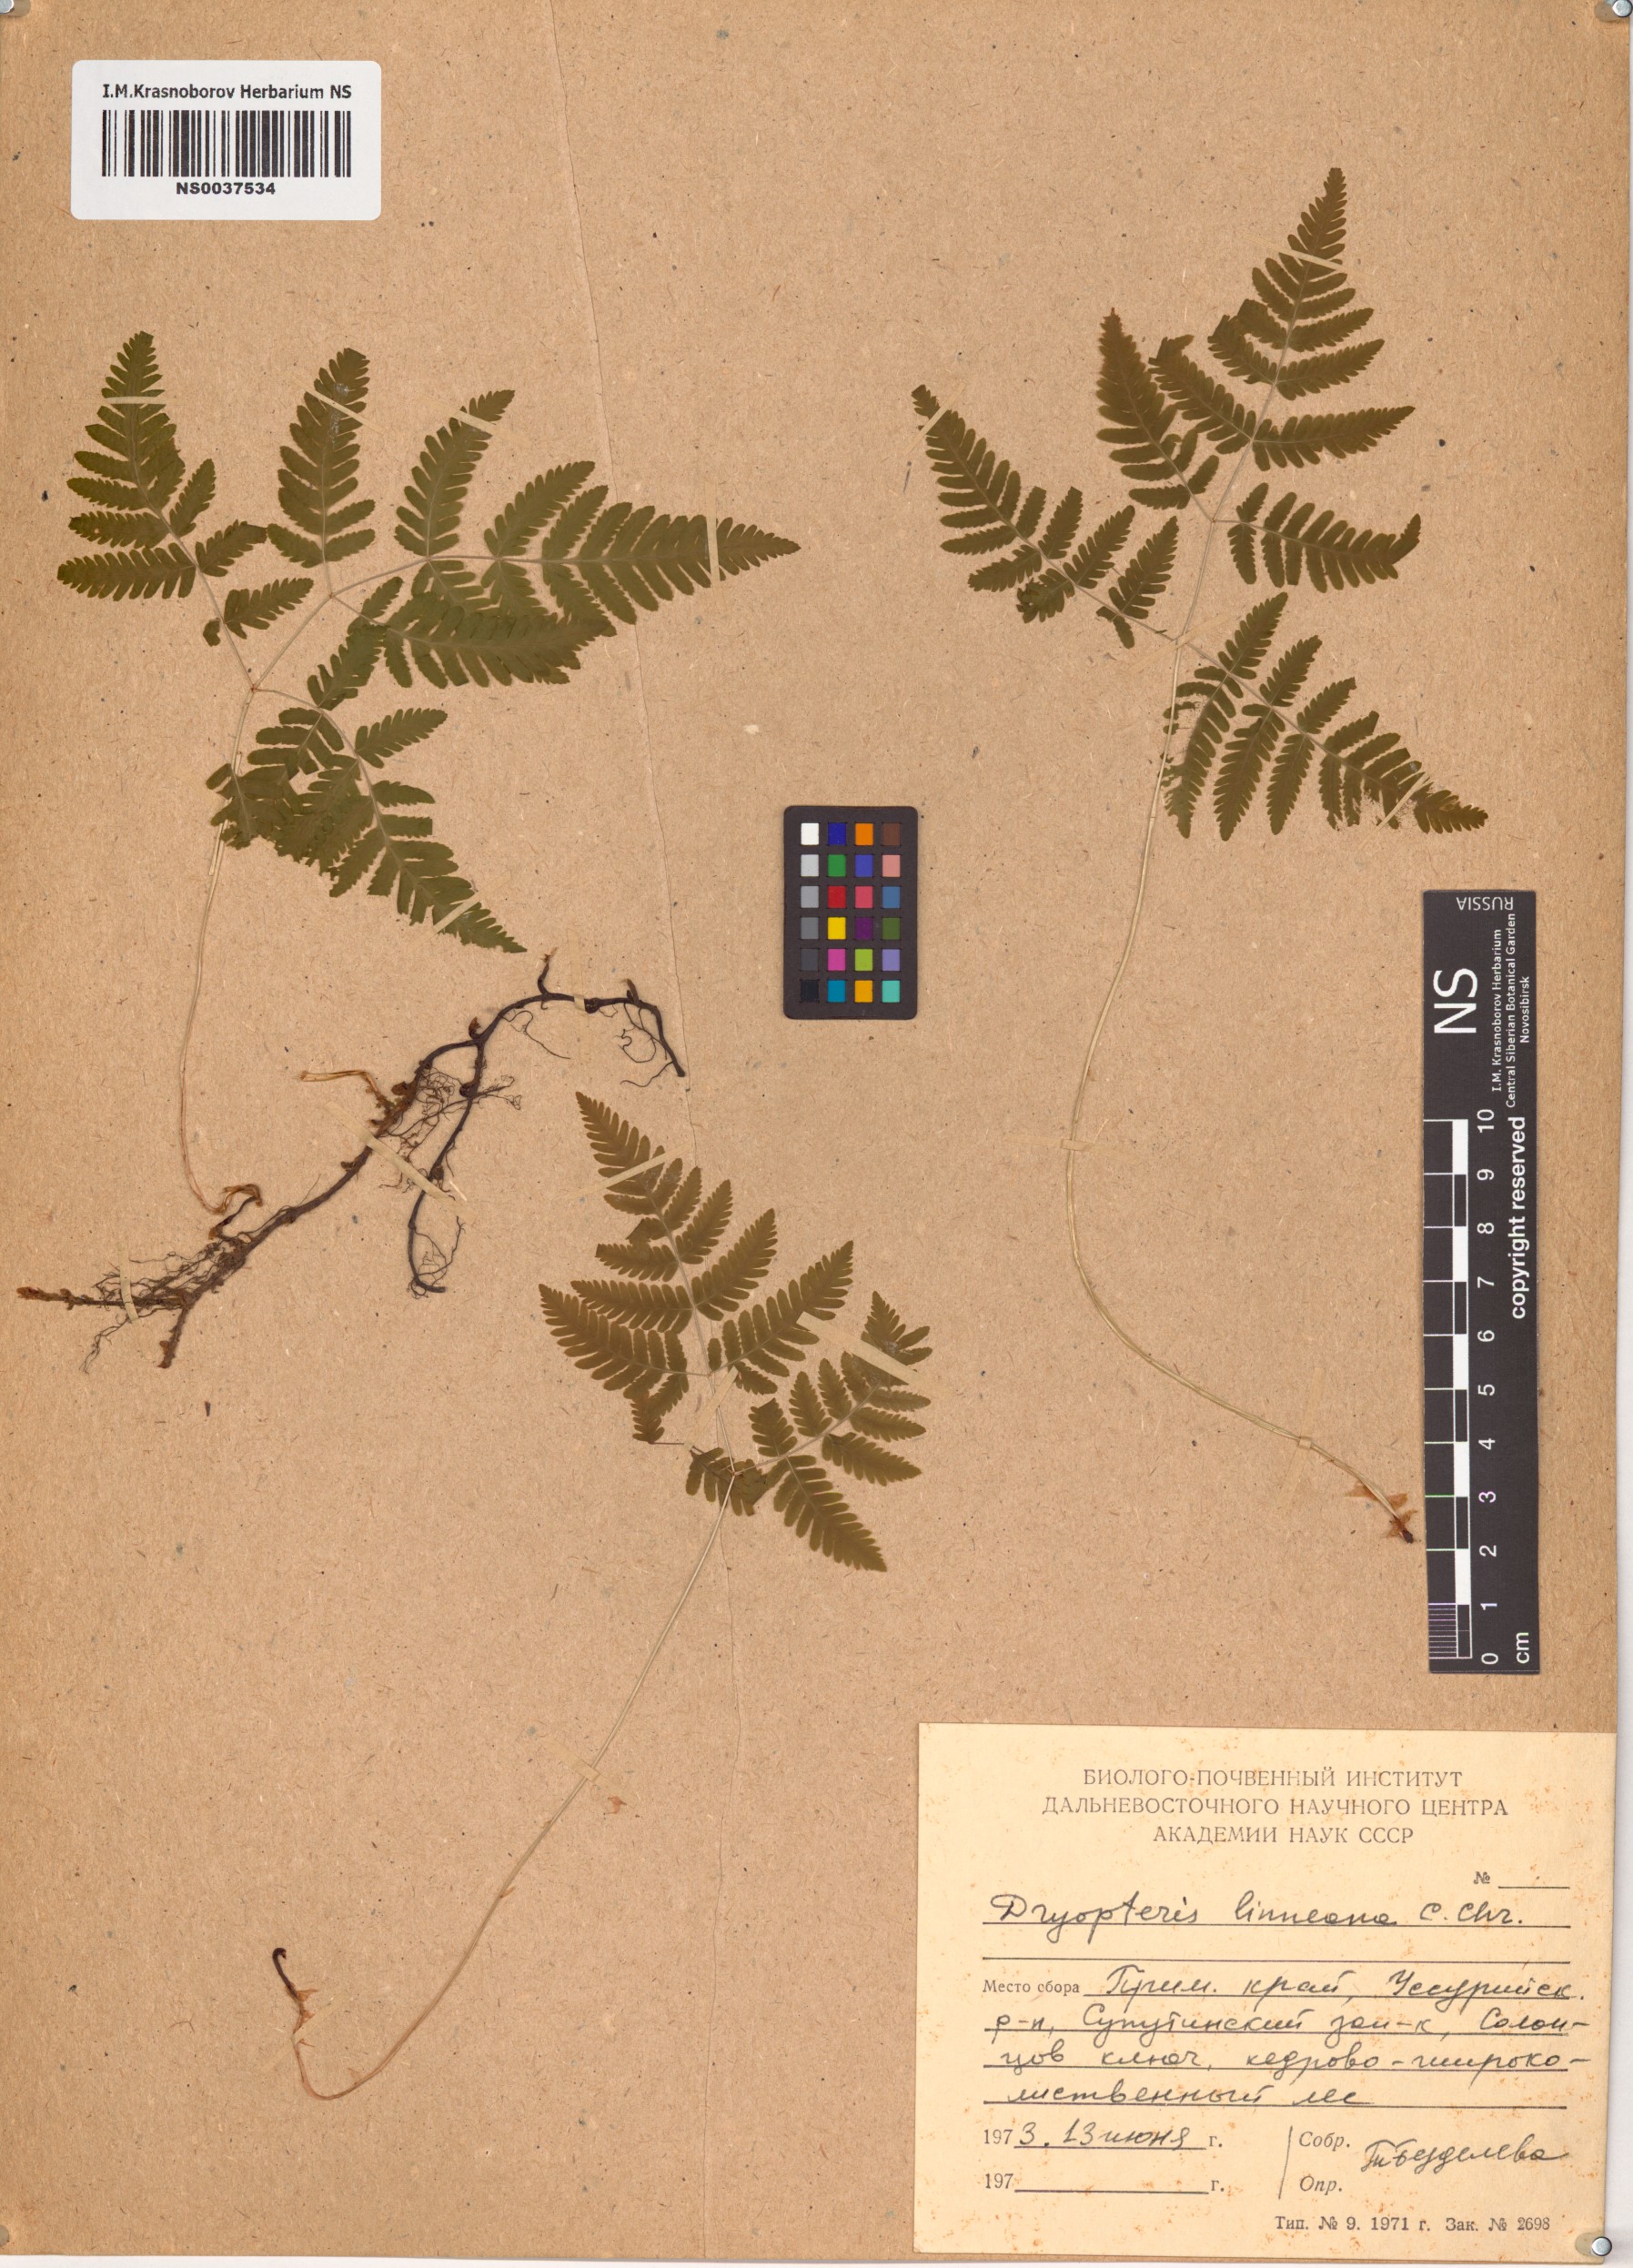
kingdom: Plantae
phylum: Tracheophyta
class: Polypodiopsida
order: Polypodiales
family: Cystopteridaceae
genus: Gymnocarpium
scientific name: Gymnocarpium dryopteris
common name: Oak fern
